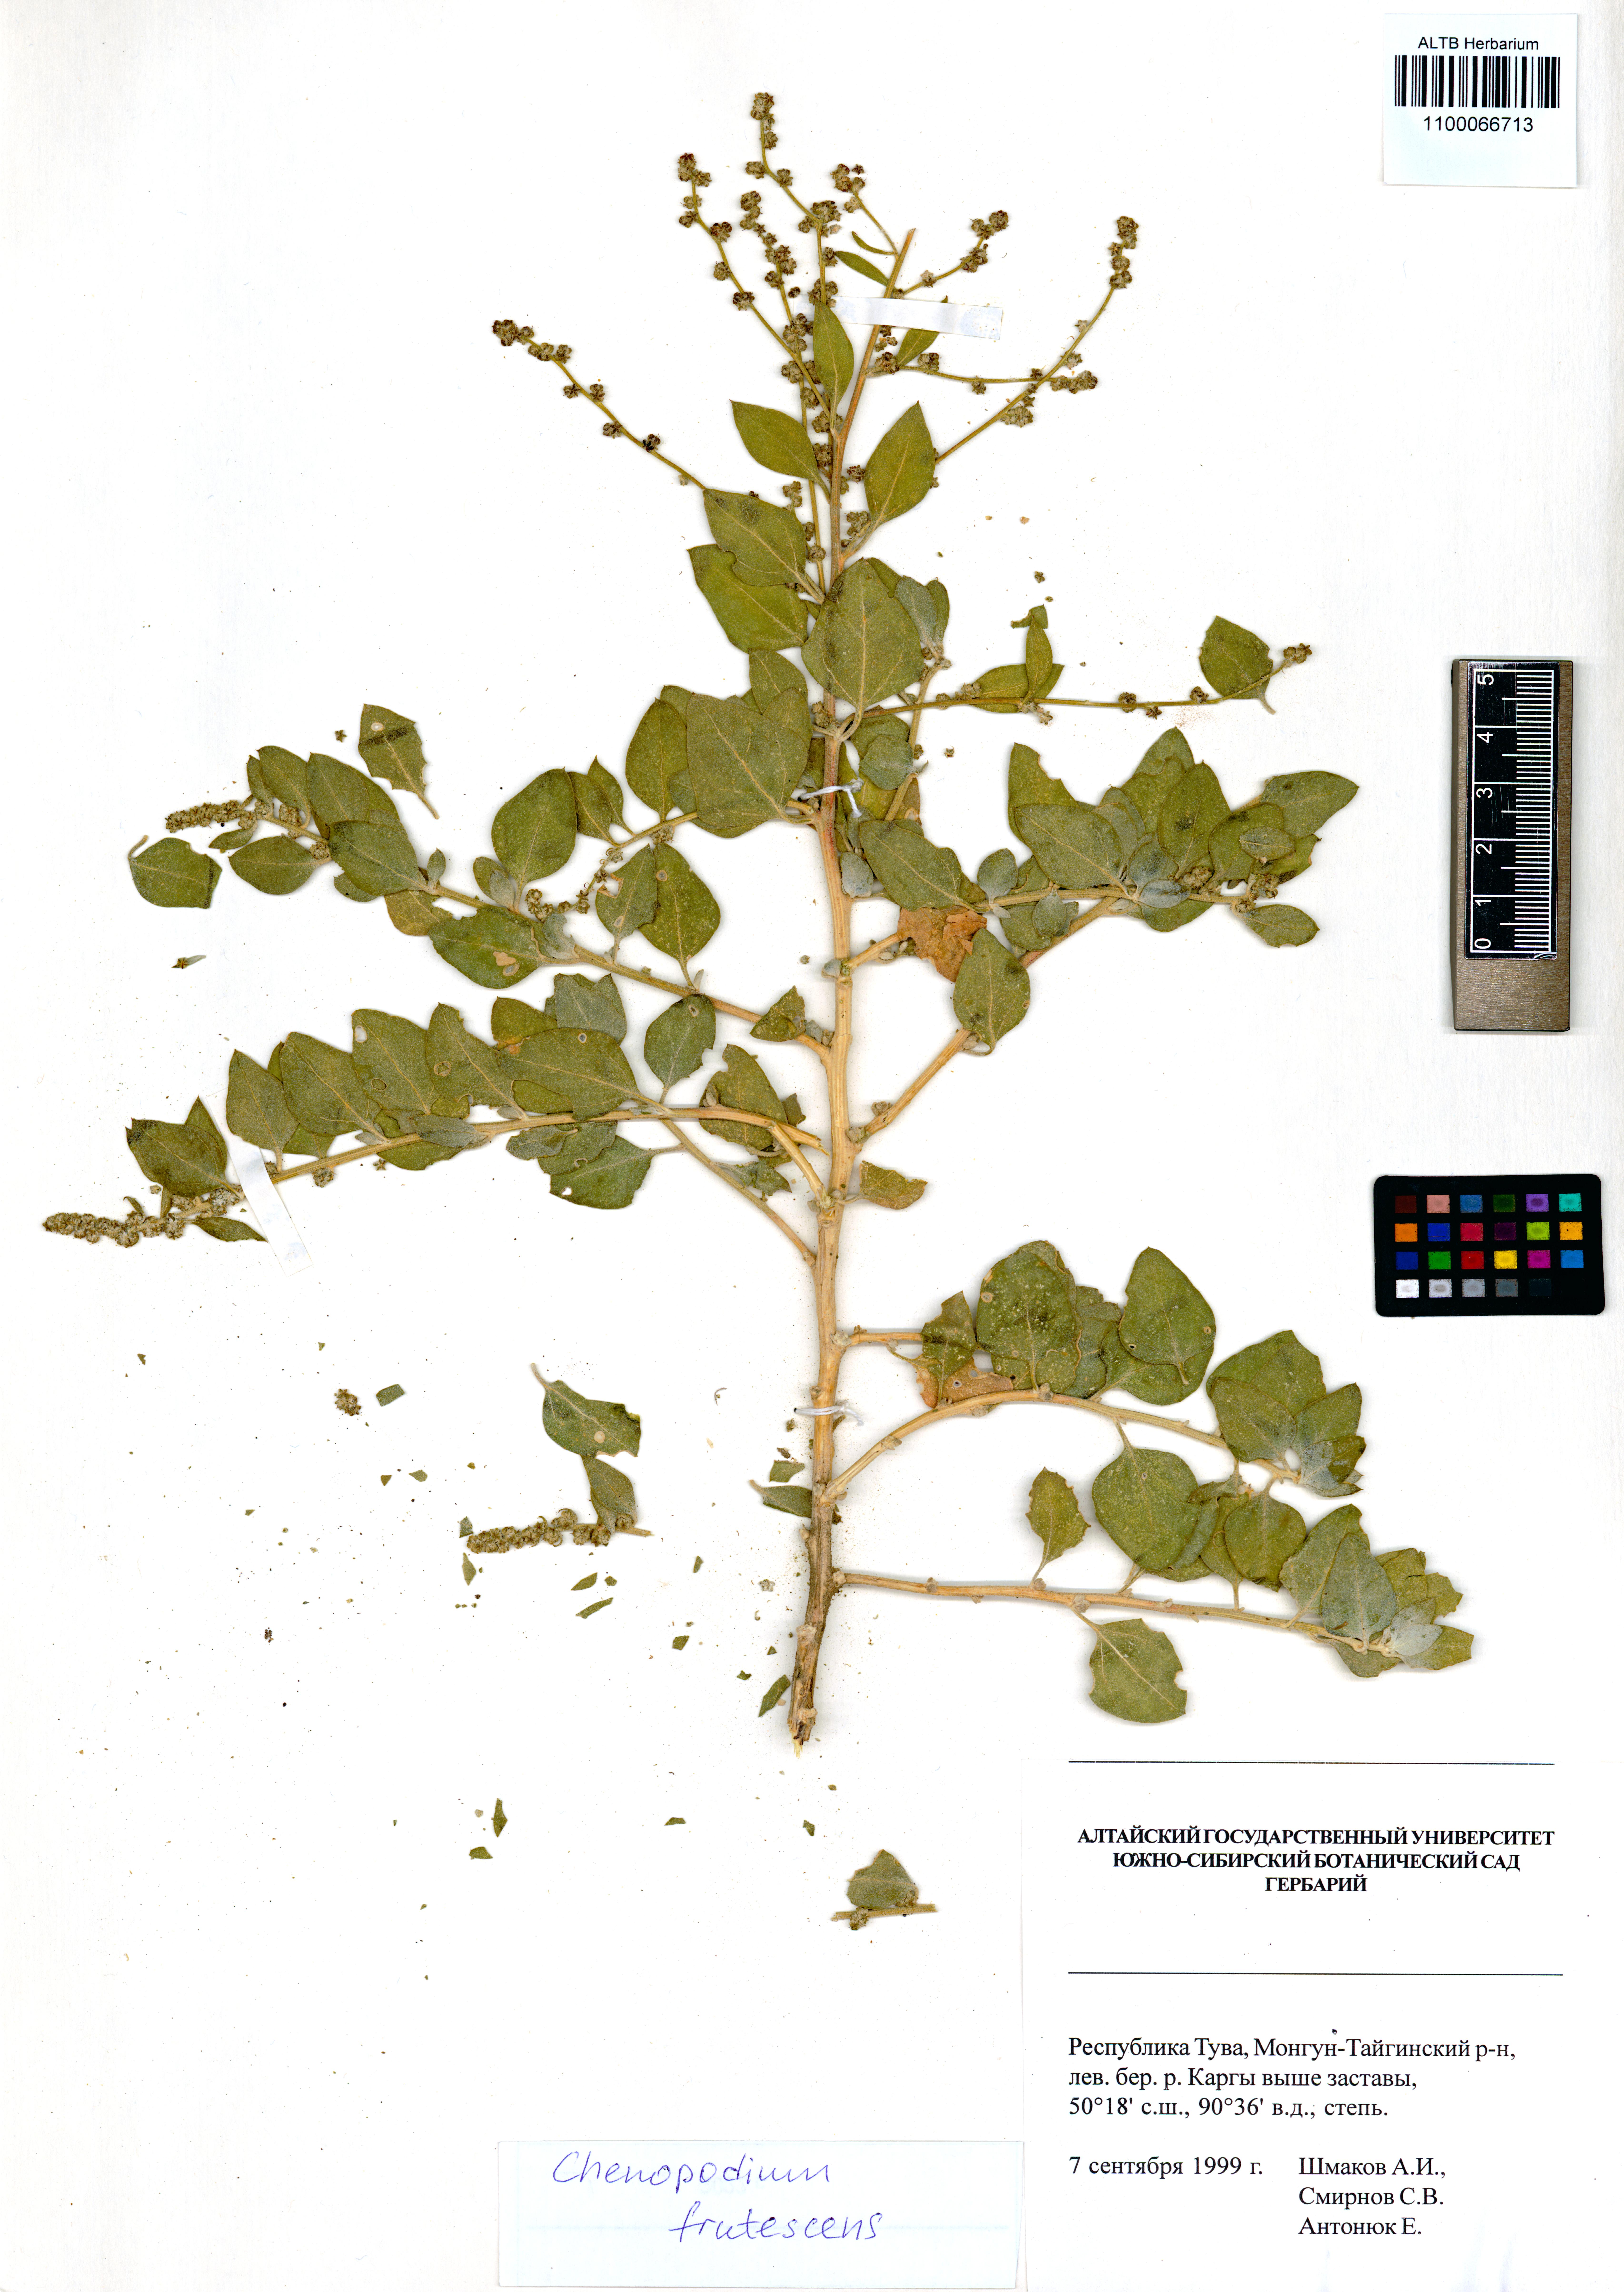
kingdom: Plantae
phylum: Tracheophyta
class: Magnoliopsida
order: Caryophyllales
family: Amaranthaceae
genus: Chenopodium
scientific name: Chenopodium frutescens
